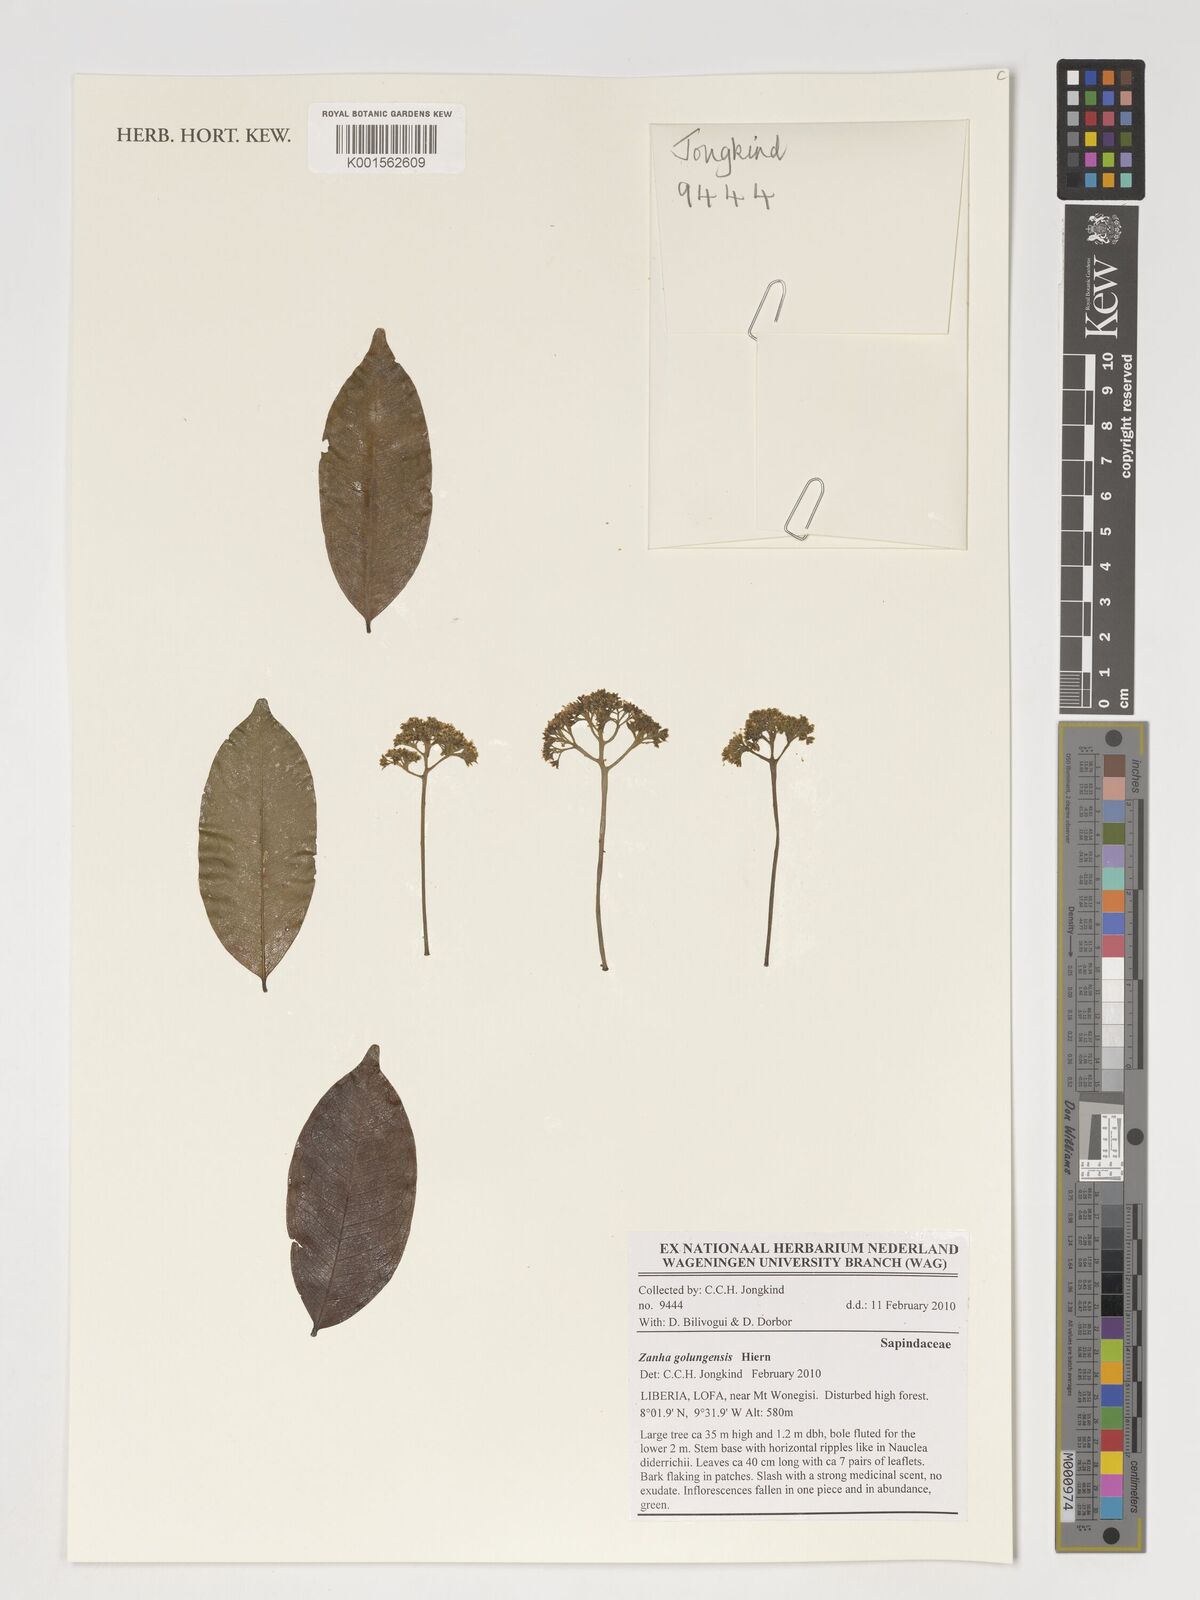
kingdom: Plantae
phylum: Tracheophyta
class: Magnoliopsida
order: Sapindales
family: Sapindaceae
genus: Zanha
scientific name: Zanha golungensis
